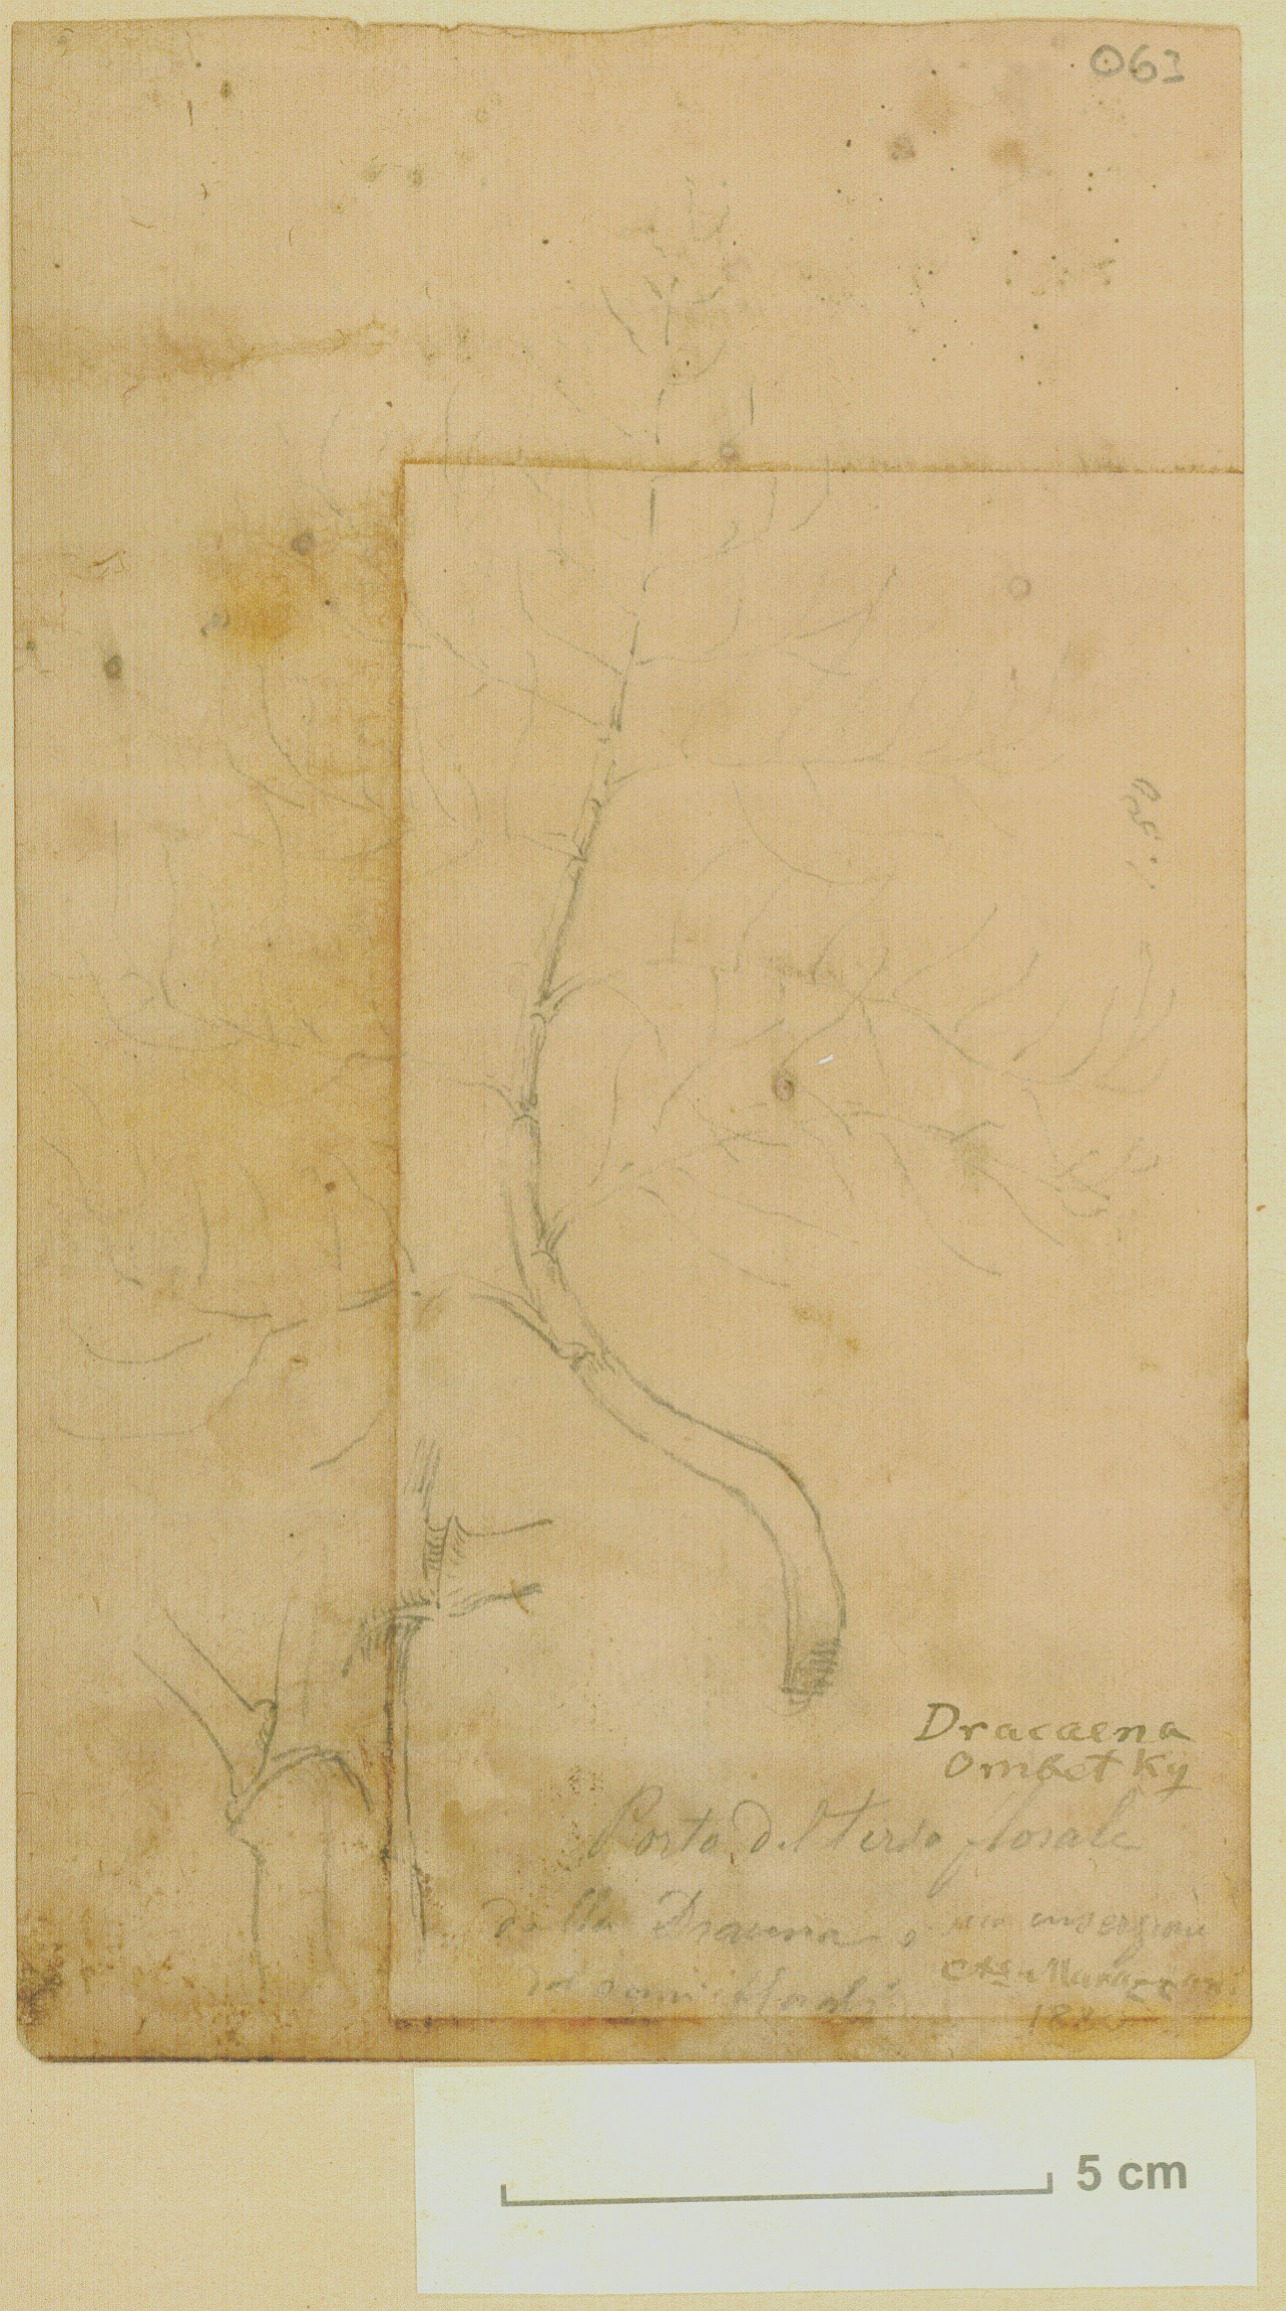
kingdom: Plantae
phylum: Tracheophyta
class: Liliopsida
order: Asparagales
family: Asparagaceae
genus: Dracaena
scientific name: Dracaena ombet
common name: Gabal elba dragon tree
